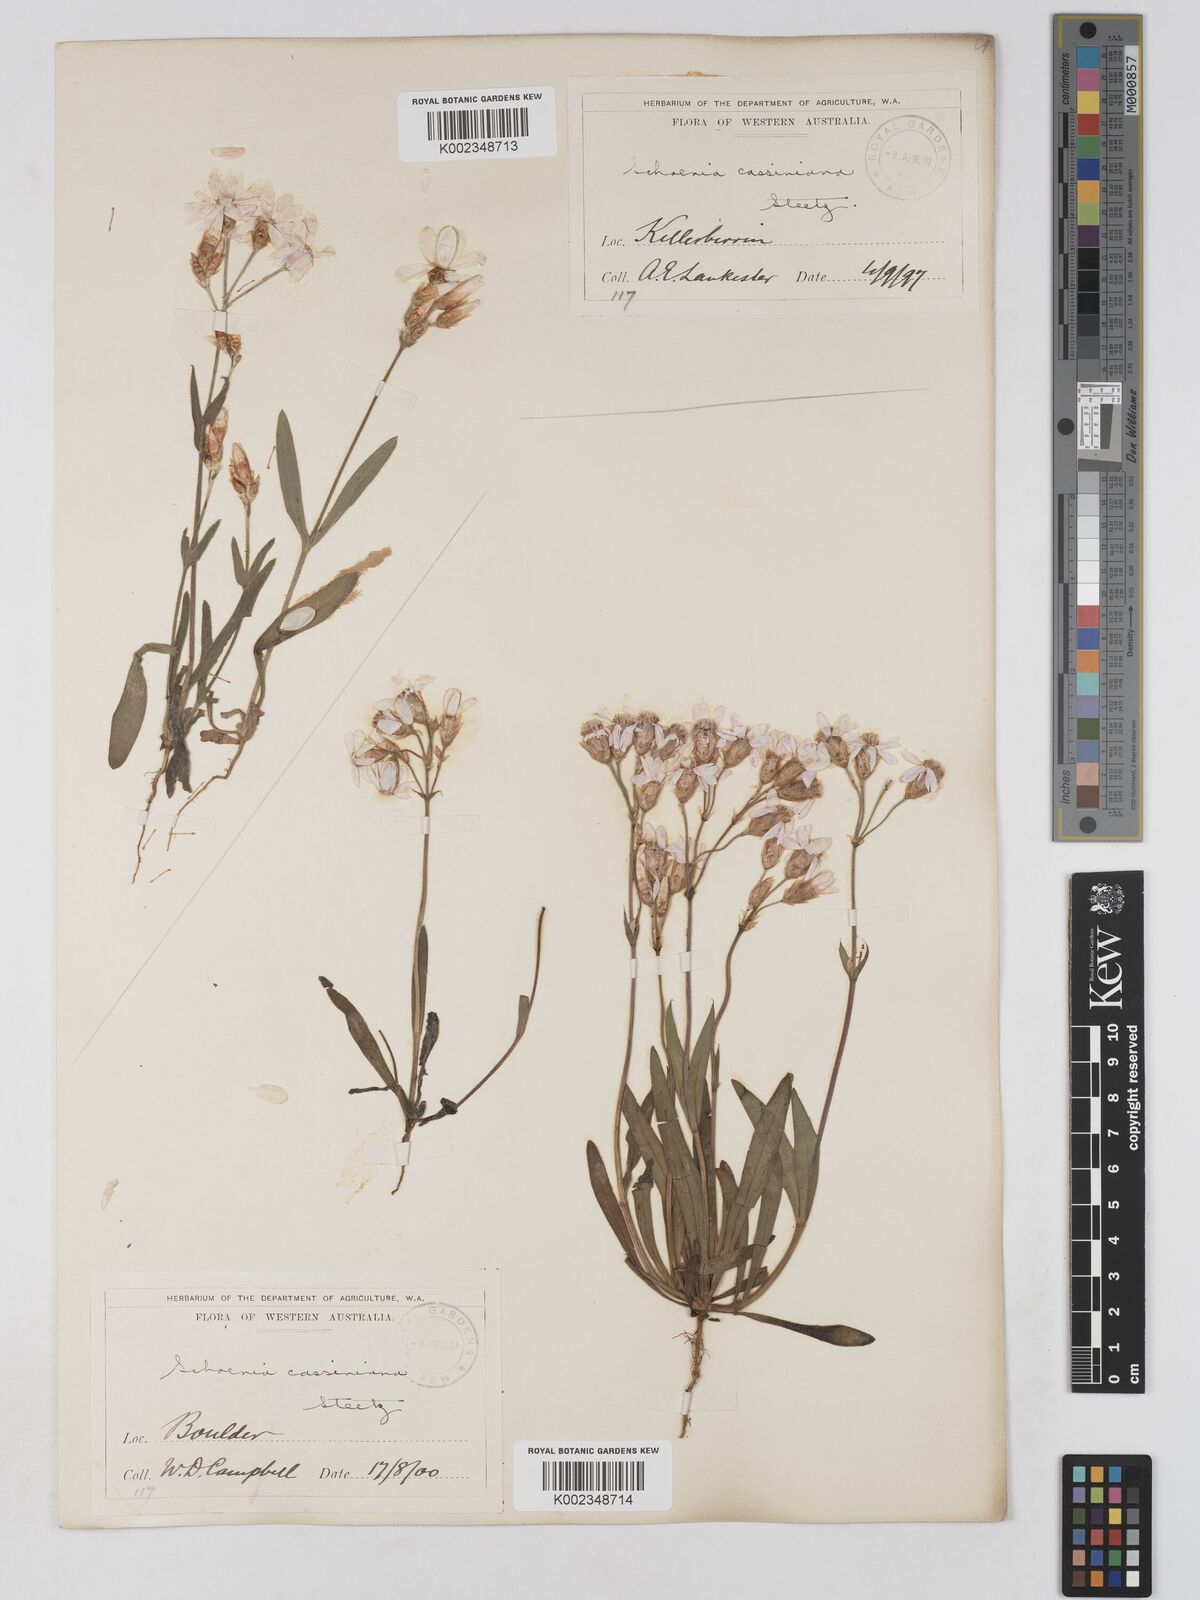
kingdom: Plantae
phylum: Tracheophyta
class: Magnoliopsida
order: Asterales
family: Asteraceae
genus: Schoenia
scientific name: Schoenia cassiniana
